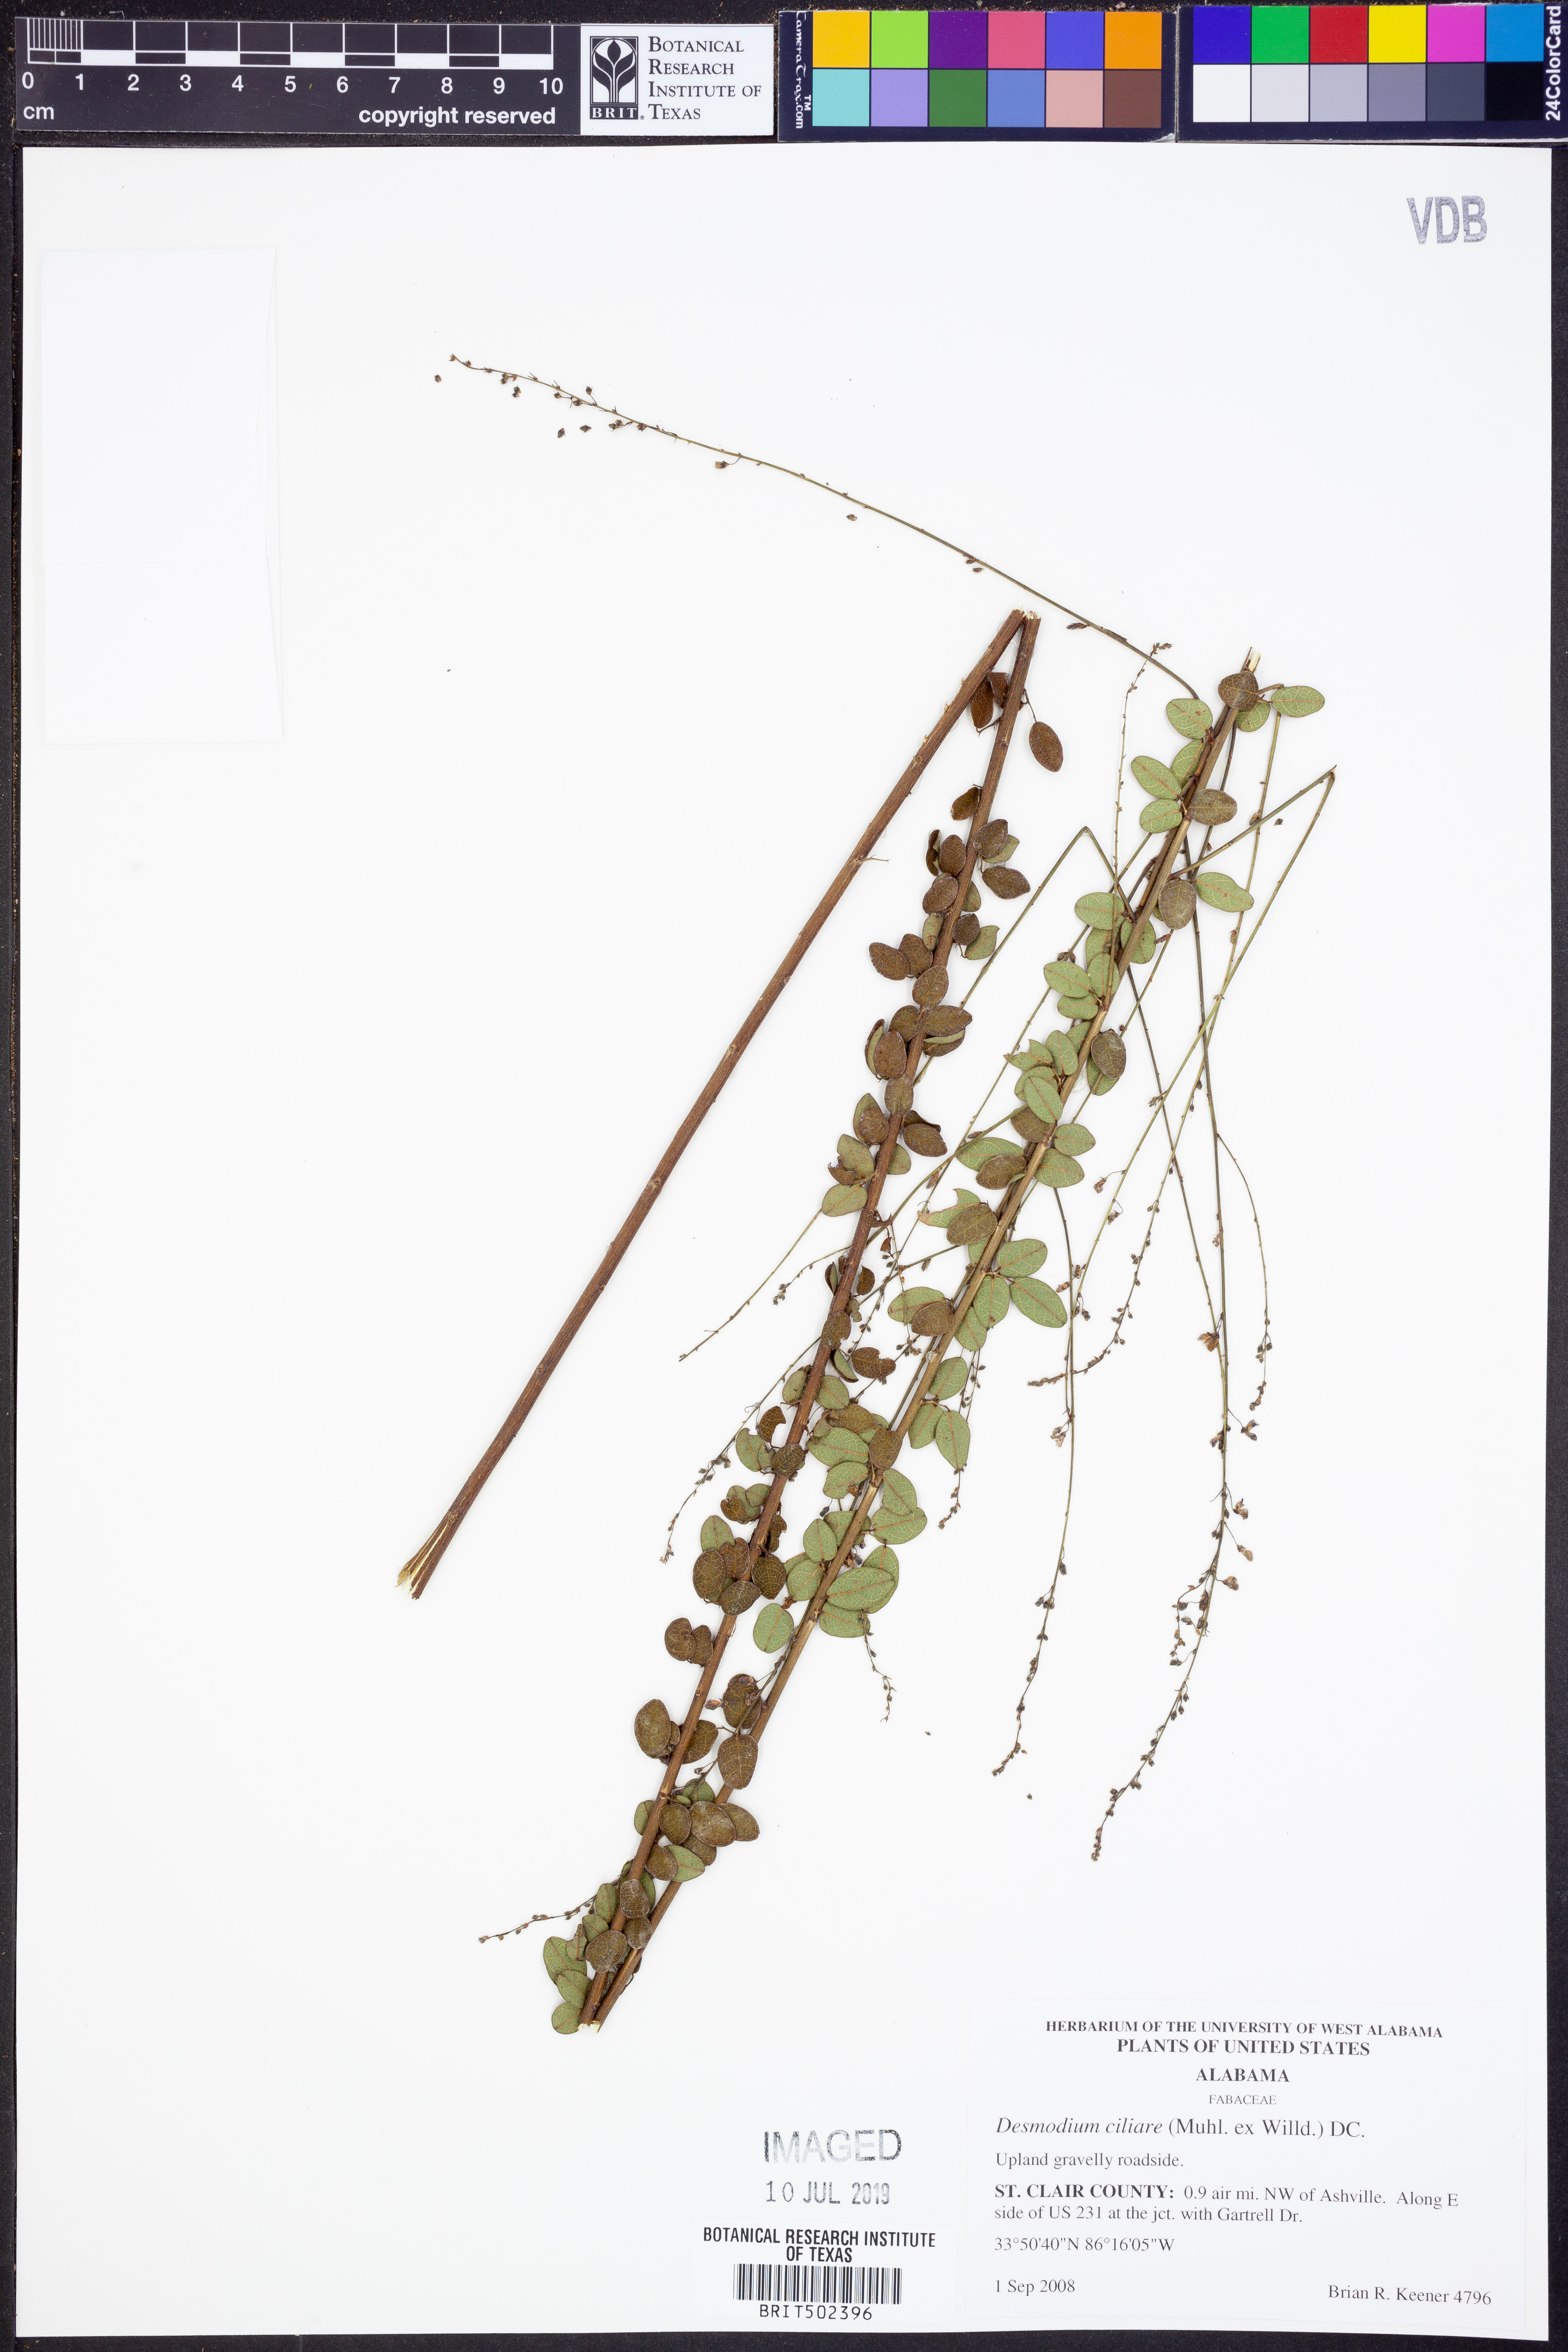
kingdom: Plantae
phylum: Tracheophyta
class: Magnoliopsida
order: Fabales
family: Fabaceae
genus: Desmodium
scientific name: Desmodium ciliare
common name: Hairy small-leaf ticktrefoil
